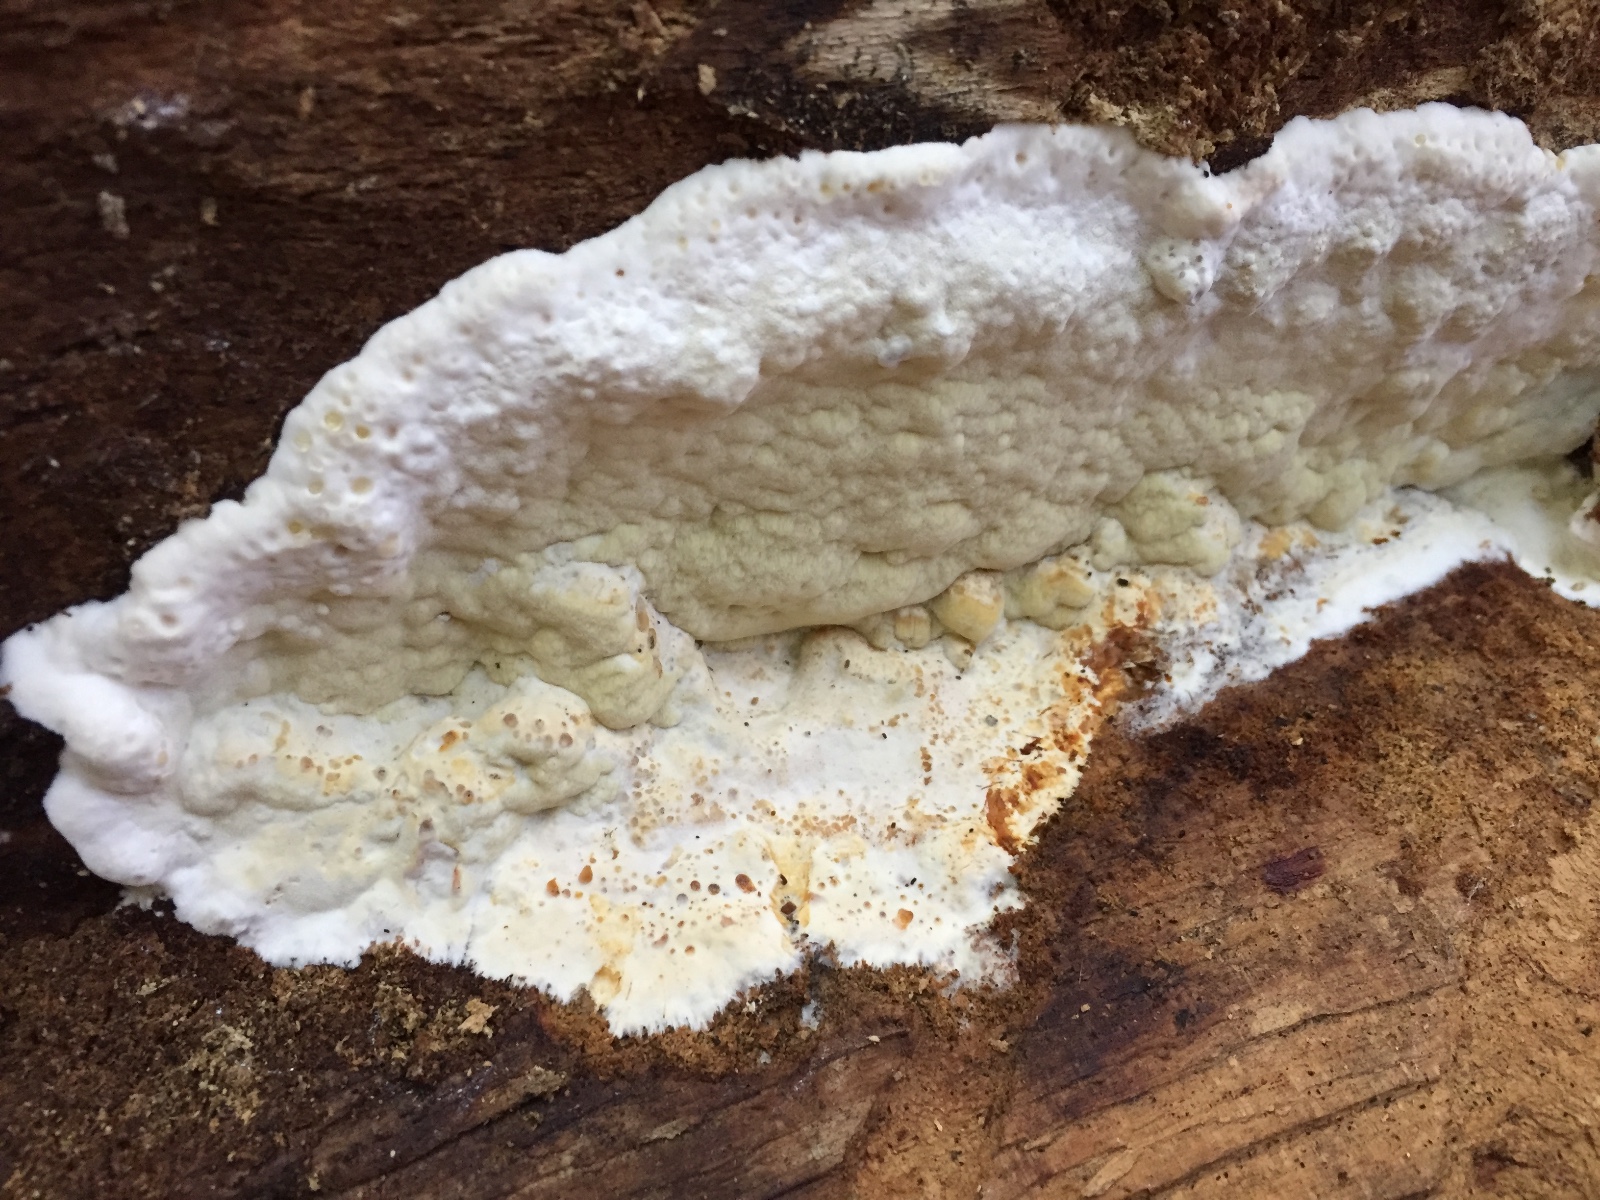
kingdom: Fungi
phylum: Basidiomycota
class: Agaricomycetes
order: Polyporales
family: Irpicaceae
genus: Gloeoporus
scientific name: Gloeoporus pannocinctus
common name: grøngul foldporesvamp
